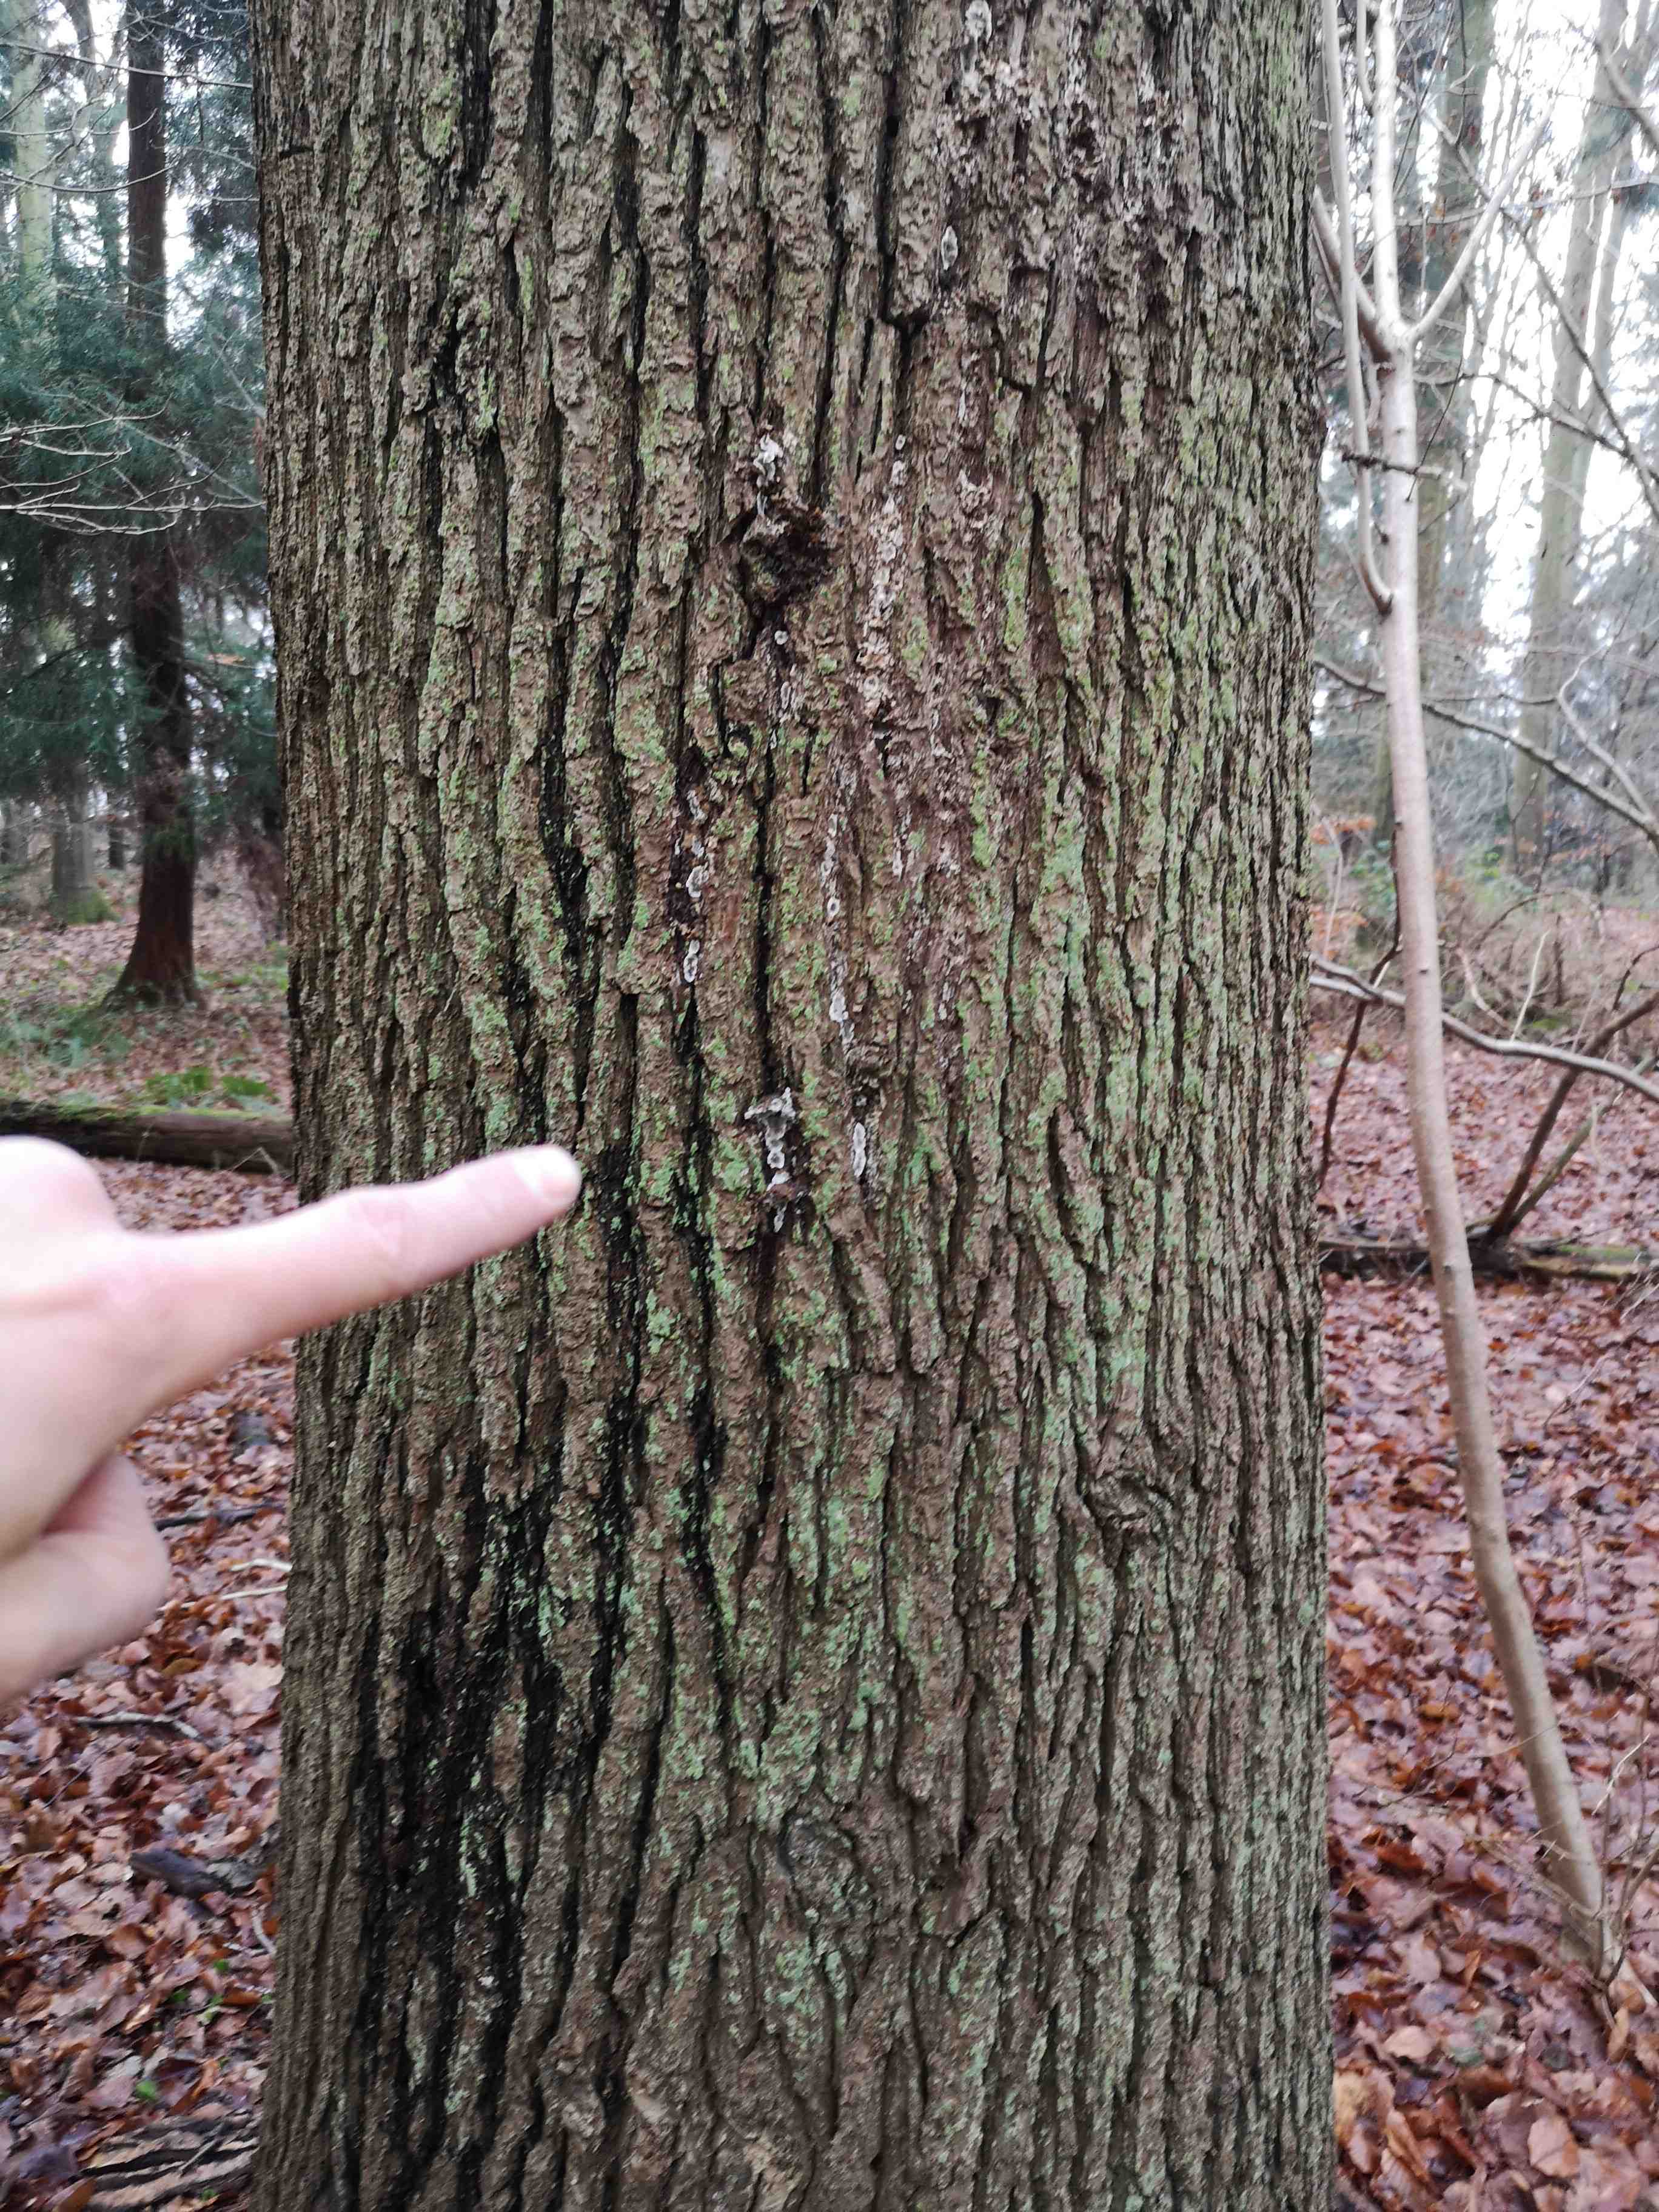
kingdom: Fungi
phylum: Basidiomycota
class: Agaricomycetes
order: Polyporales
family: Phanerochaetaceae
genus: Bjerkandera
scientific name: Bjerkandera adusta
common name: sveden sodporesvamp
